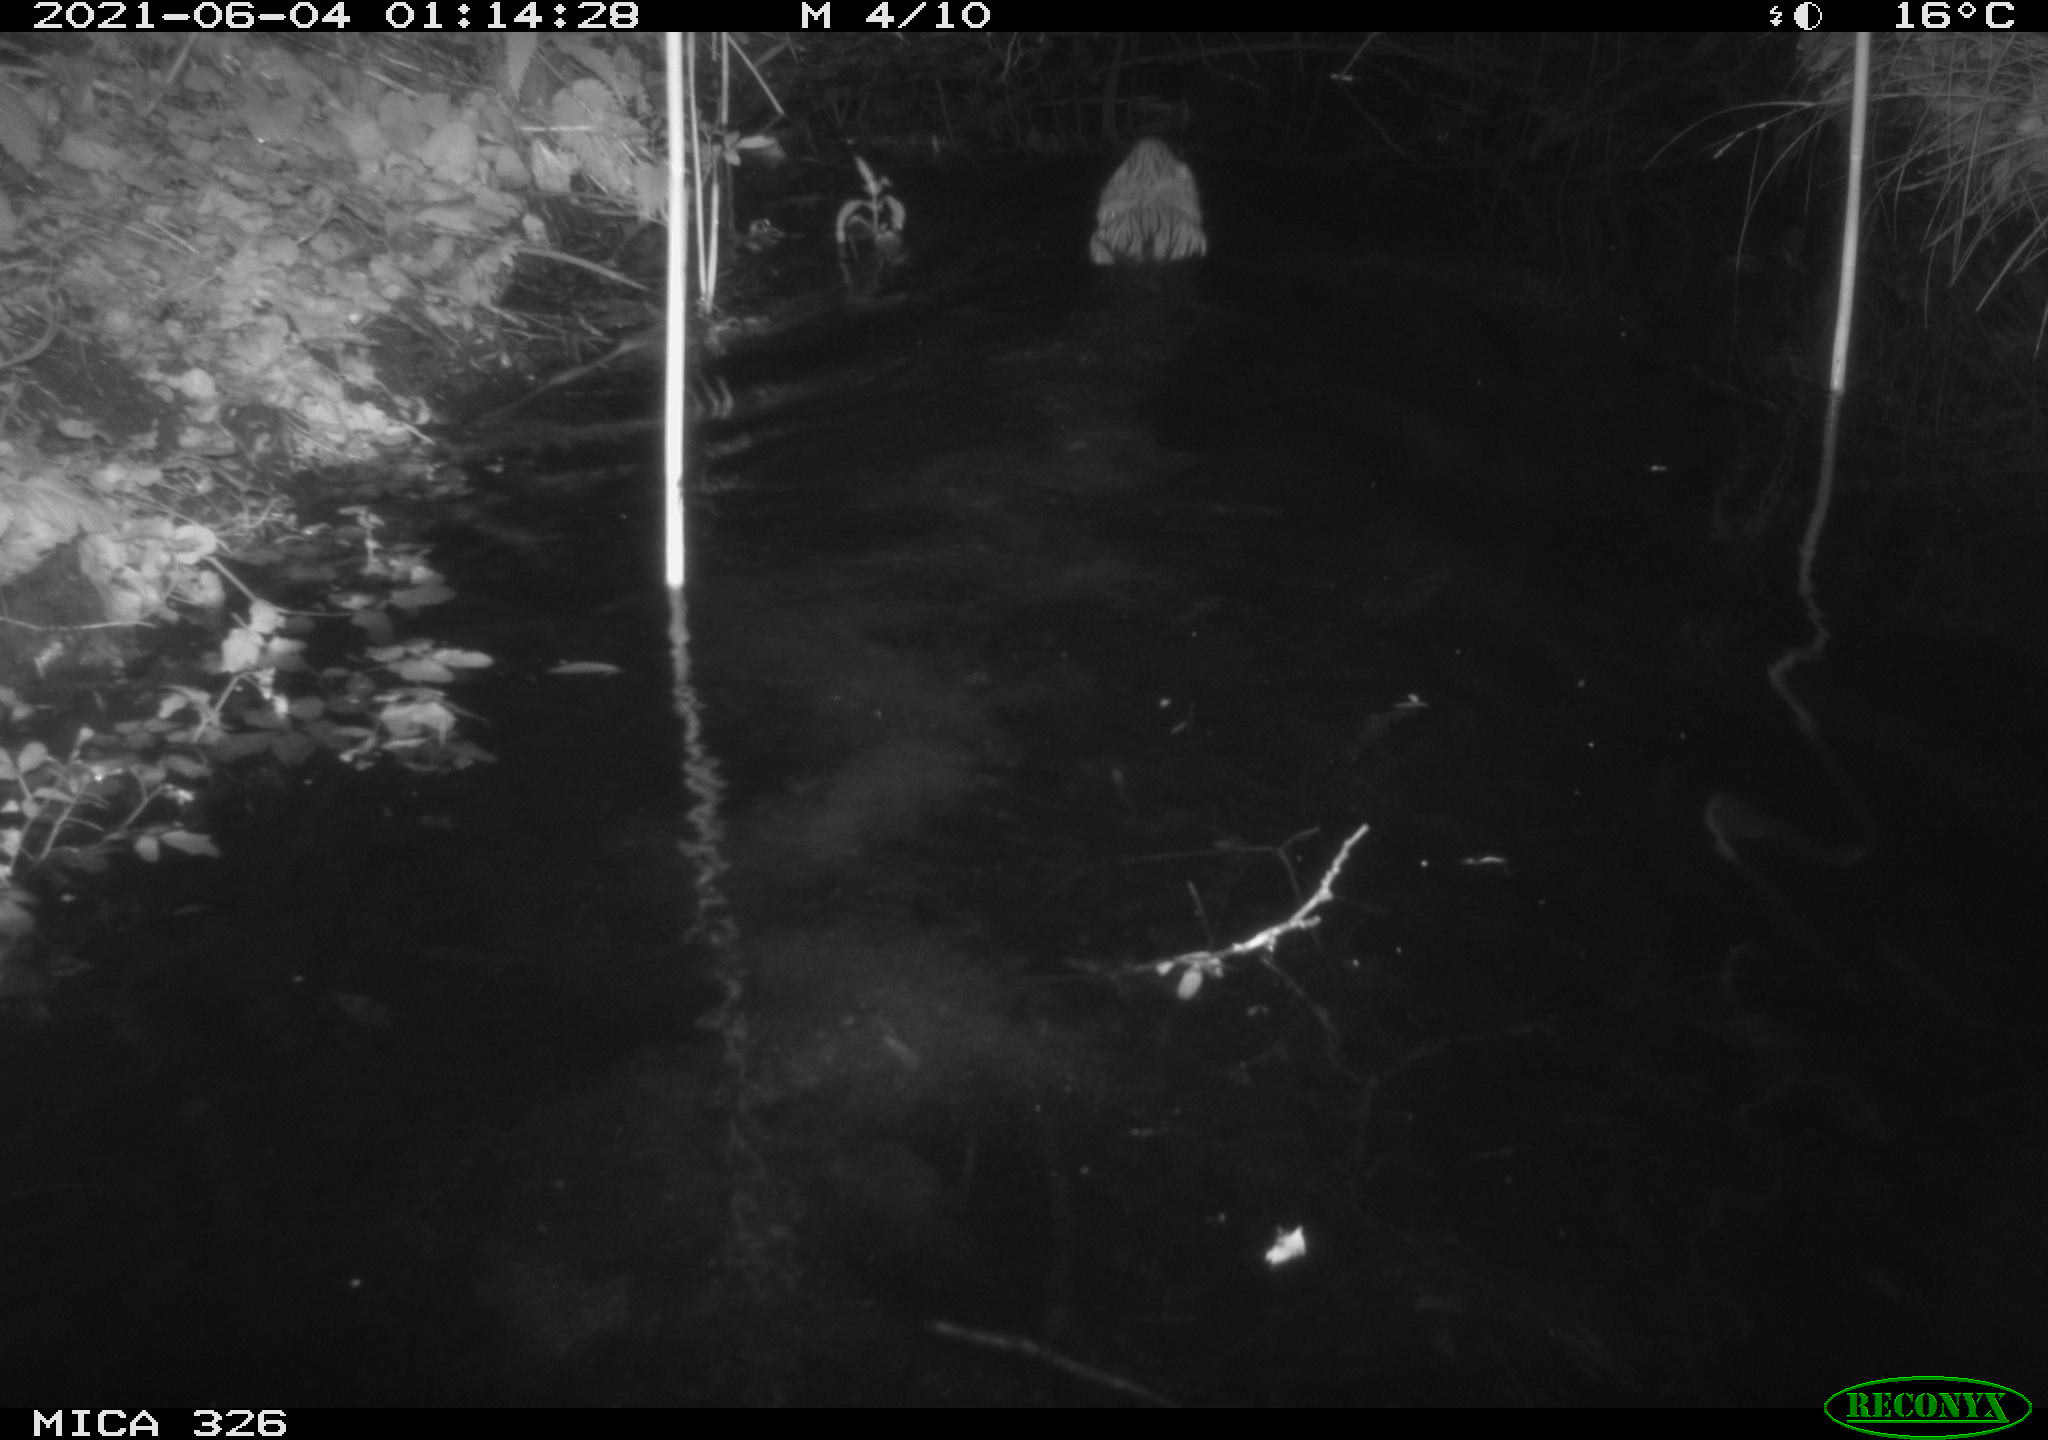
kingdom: Animalia
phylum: Chordata
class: Mammalia
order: Rodentia
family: Cricetidae
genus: Ondatra
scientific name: Ondatra zibethicus
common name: Muskrat
